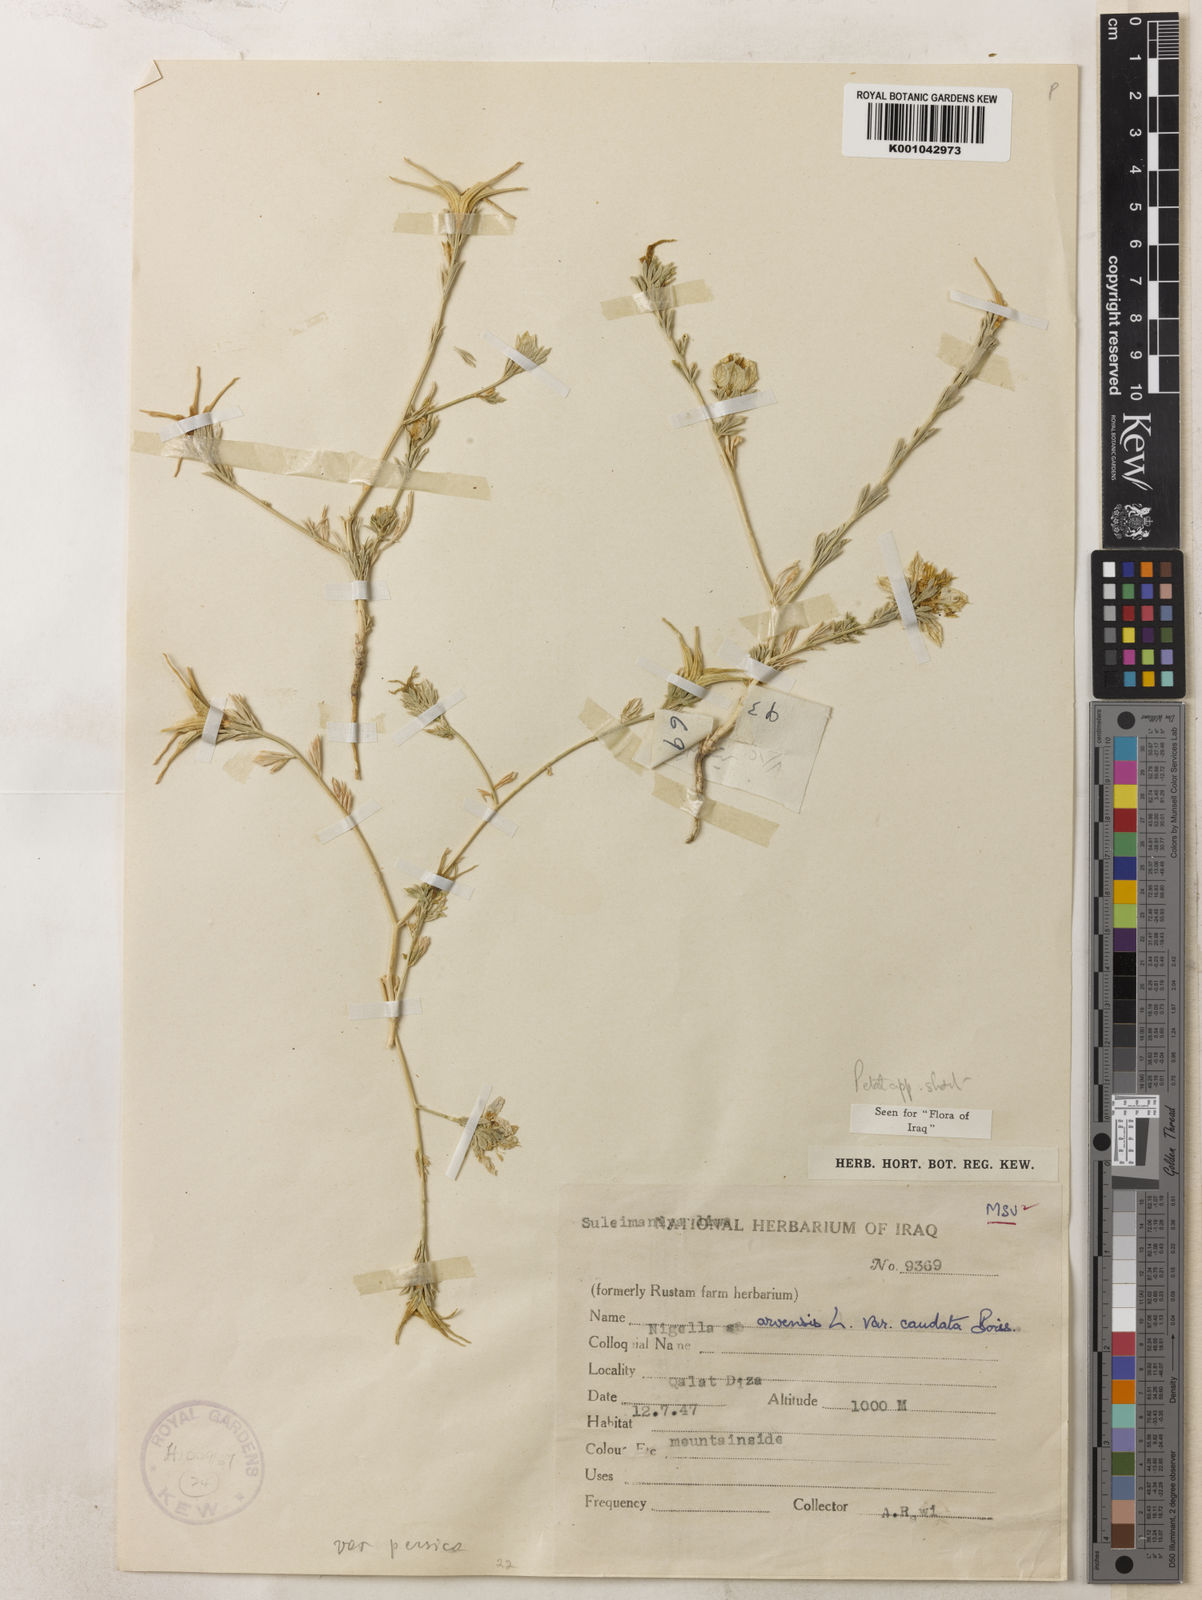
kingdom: Plantae
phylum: Tracheophyta
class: Magnoliopsida
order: Ranunculales
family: Ranunculaceae
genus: Nigella
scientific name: Nigella arvensis
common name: Wild fennel-flower
